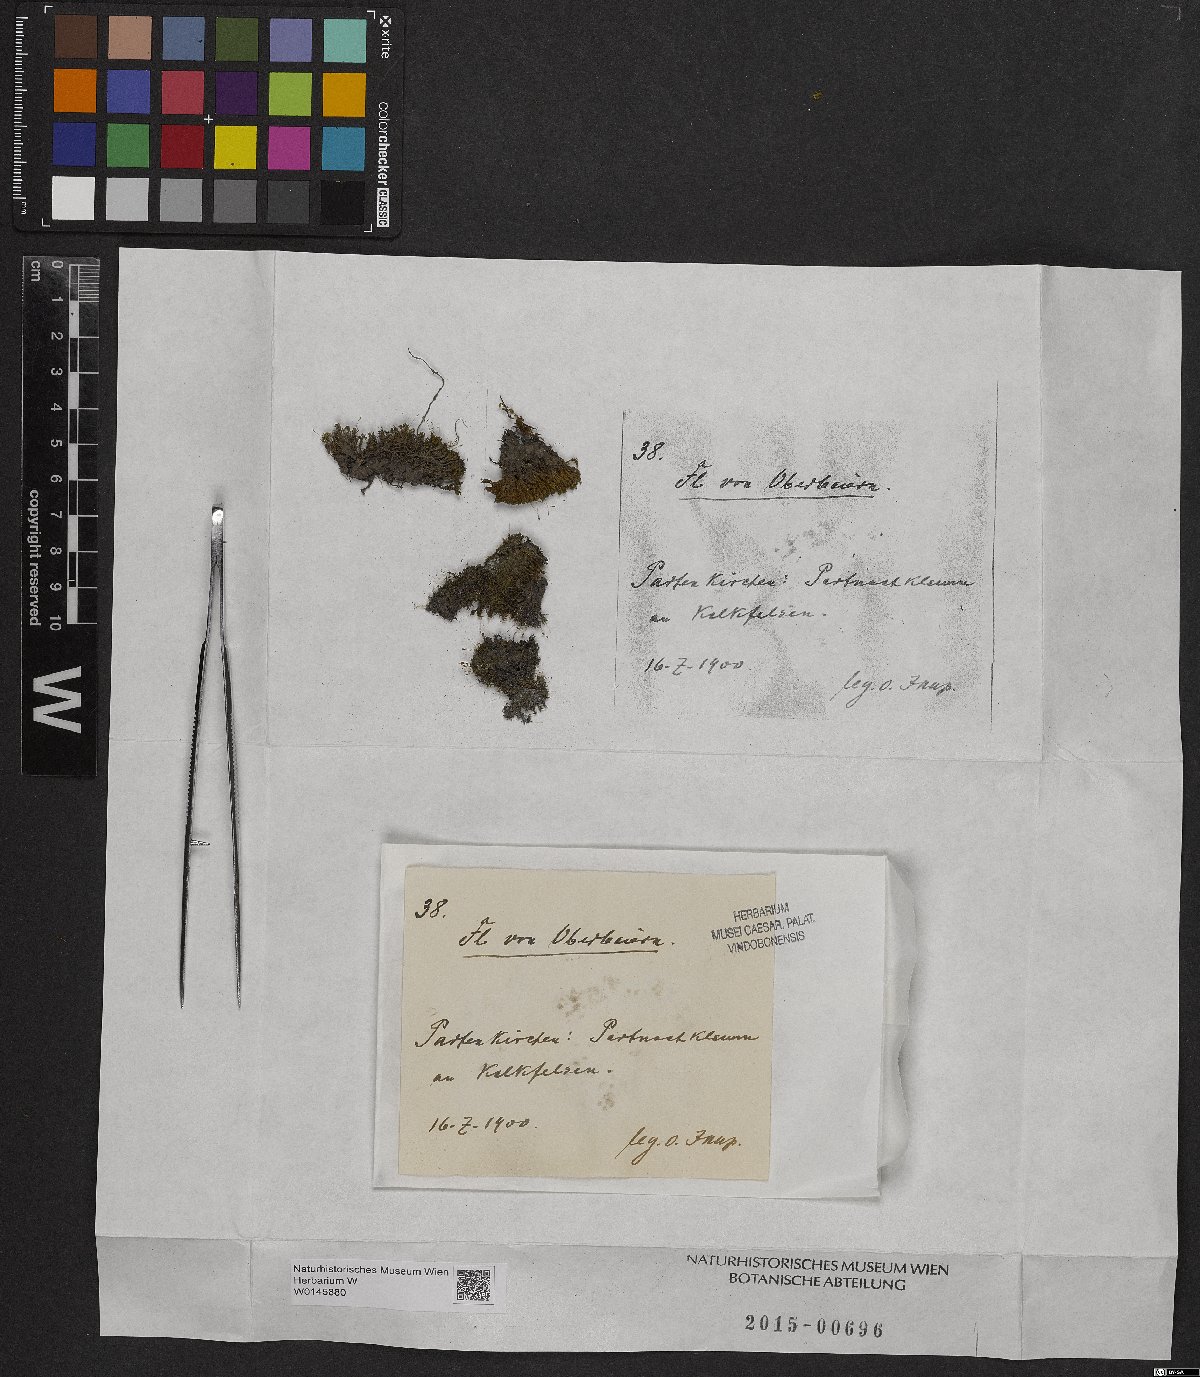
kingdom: Plantae
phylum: Bryophyta
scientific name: Bryophyta
